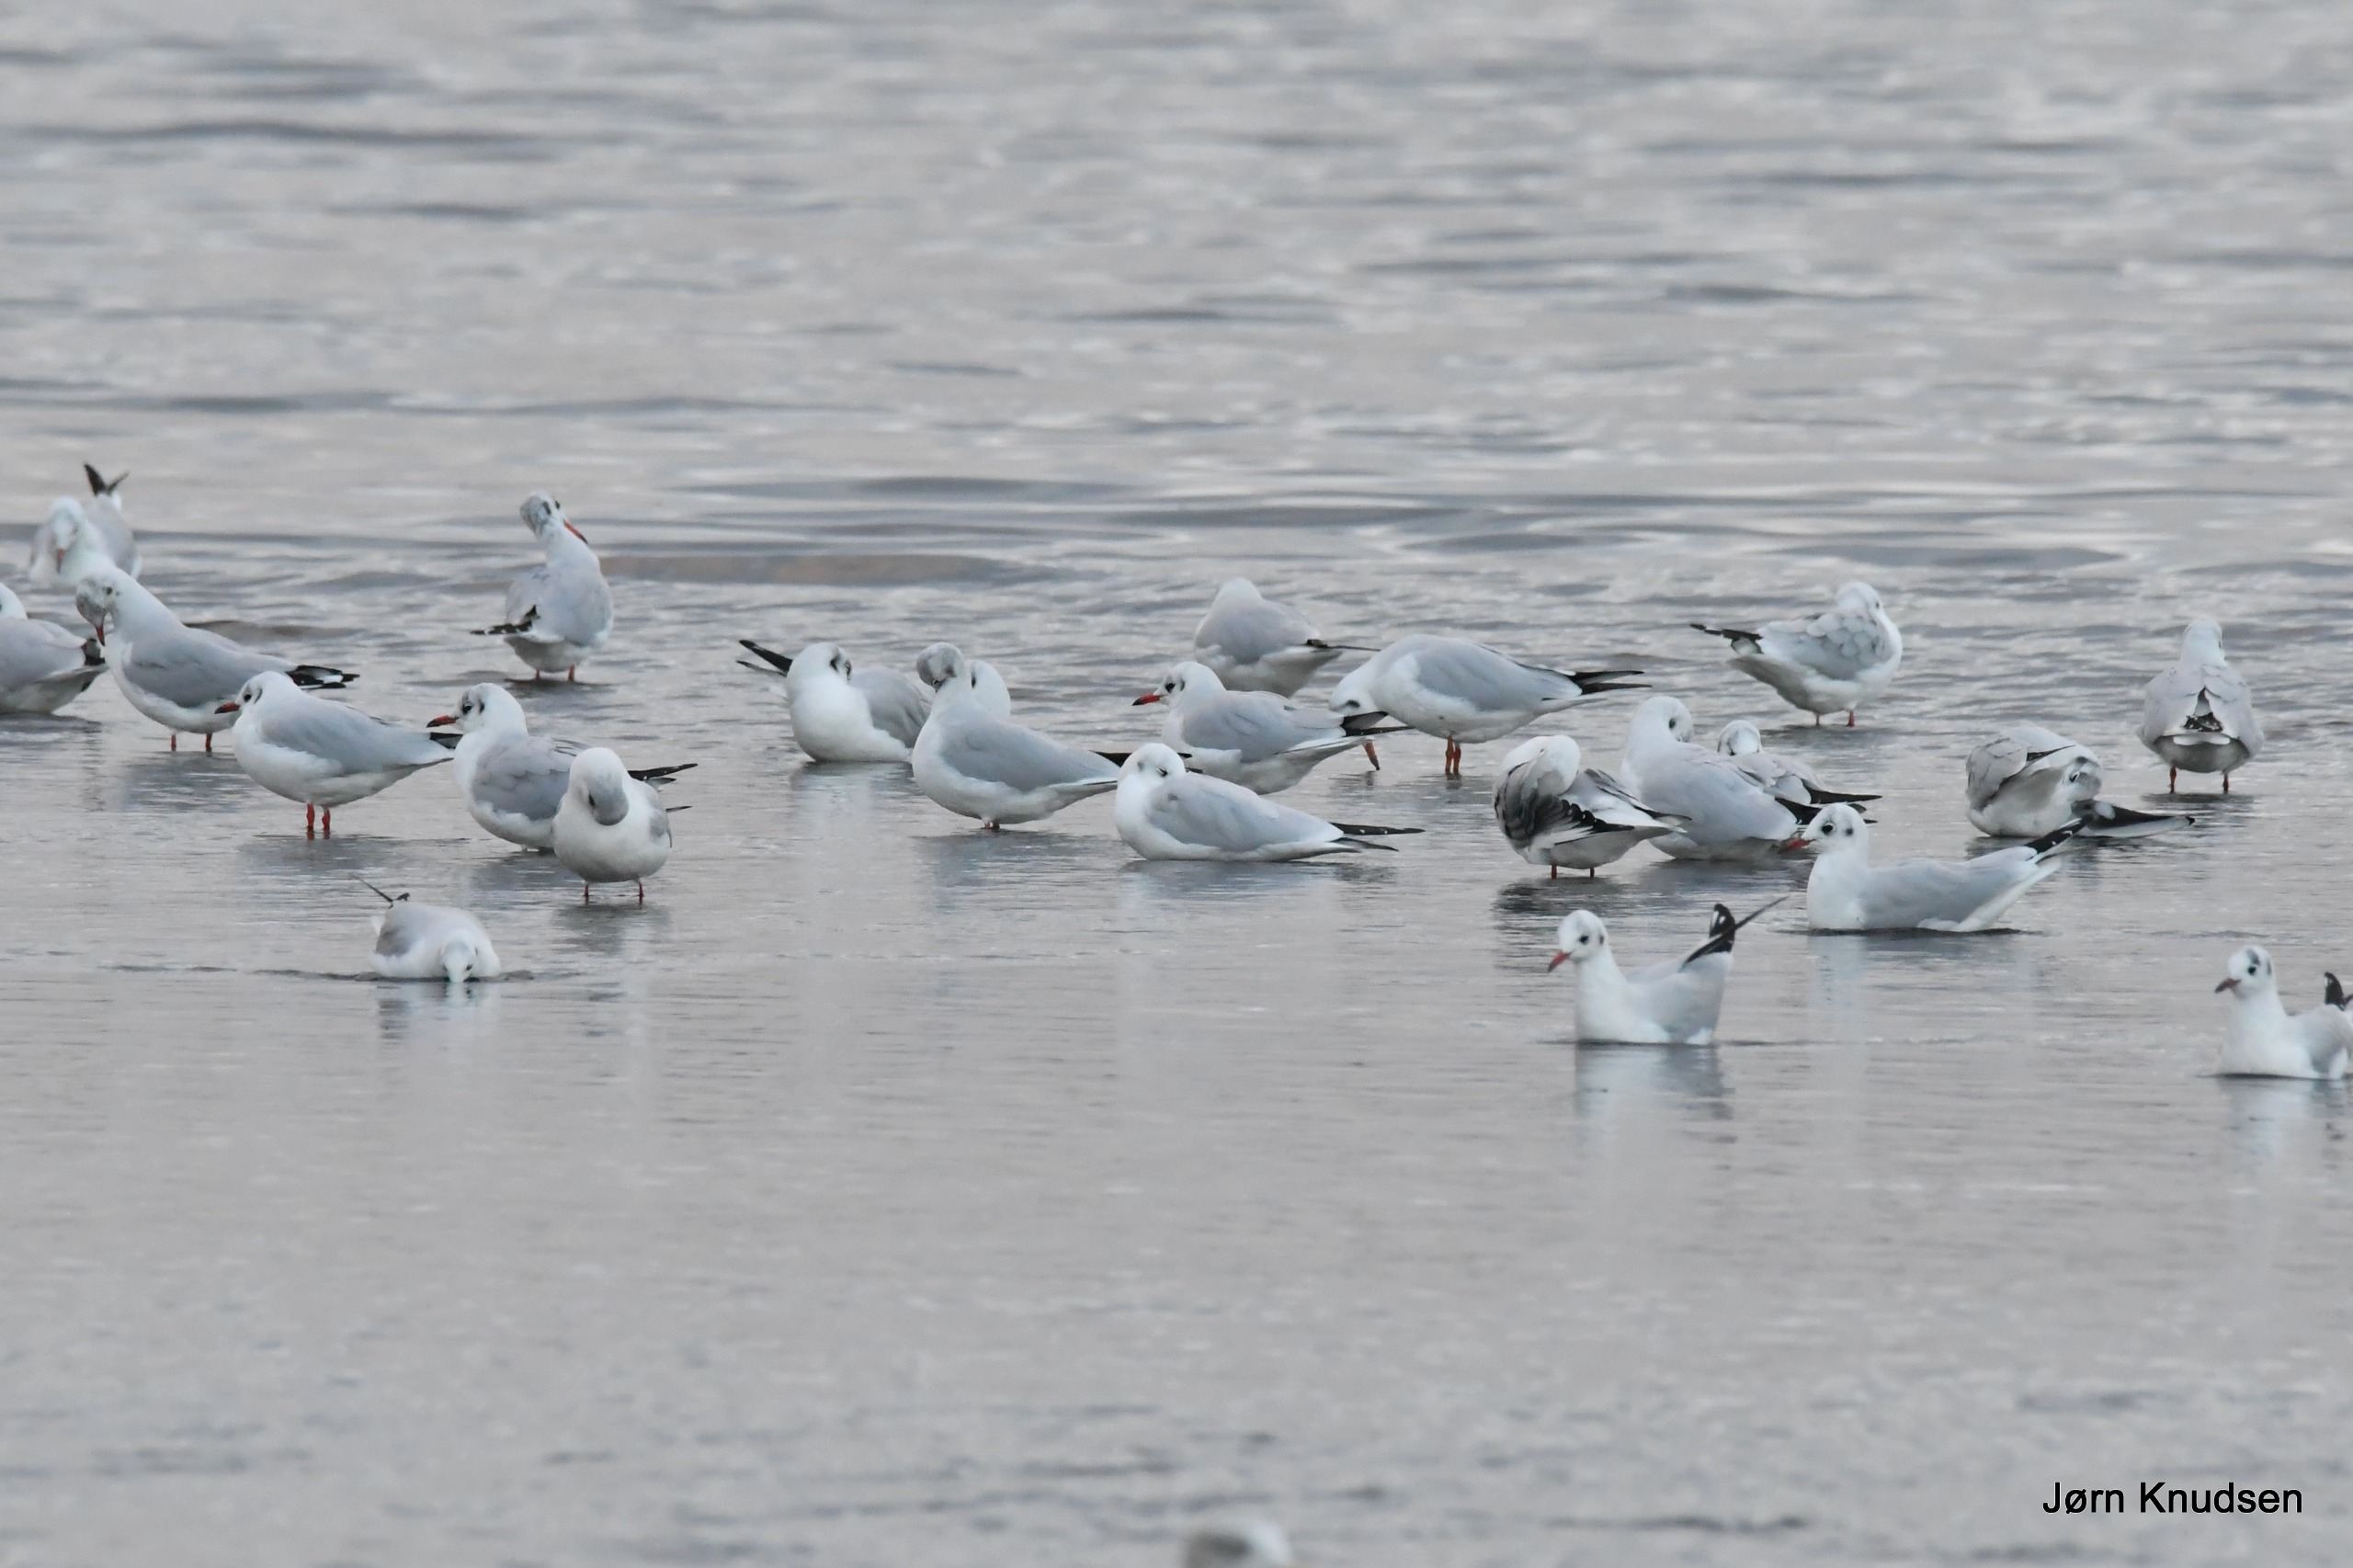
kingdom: Animalia
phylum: Chordata
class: Aves
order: Charadriiformes
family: Laridae
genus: Chroicocephalus
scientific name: Chroicocephalus ridibundus
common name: Hættemåge
